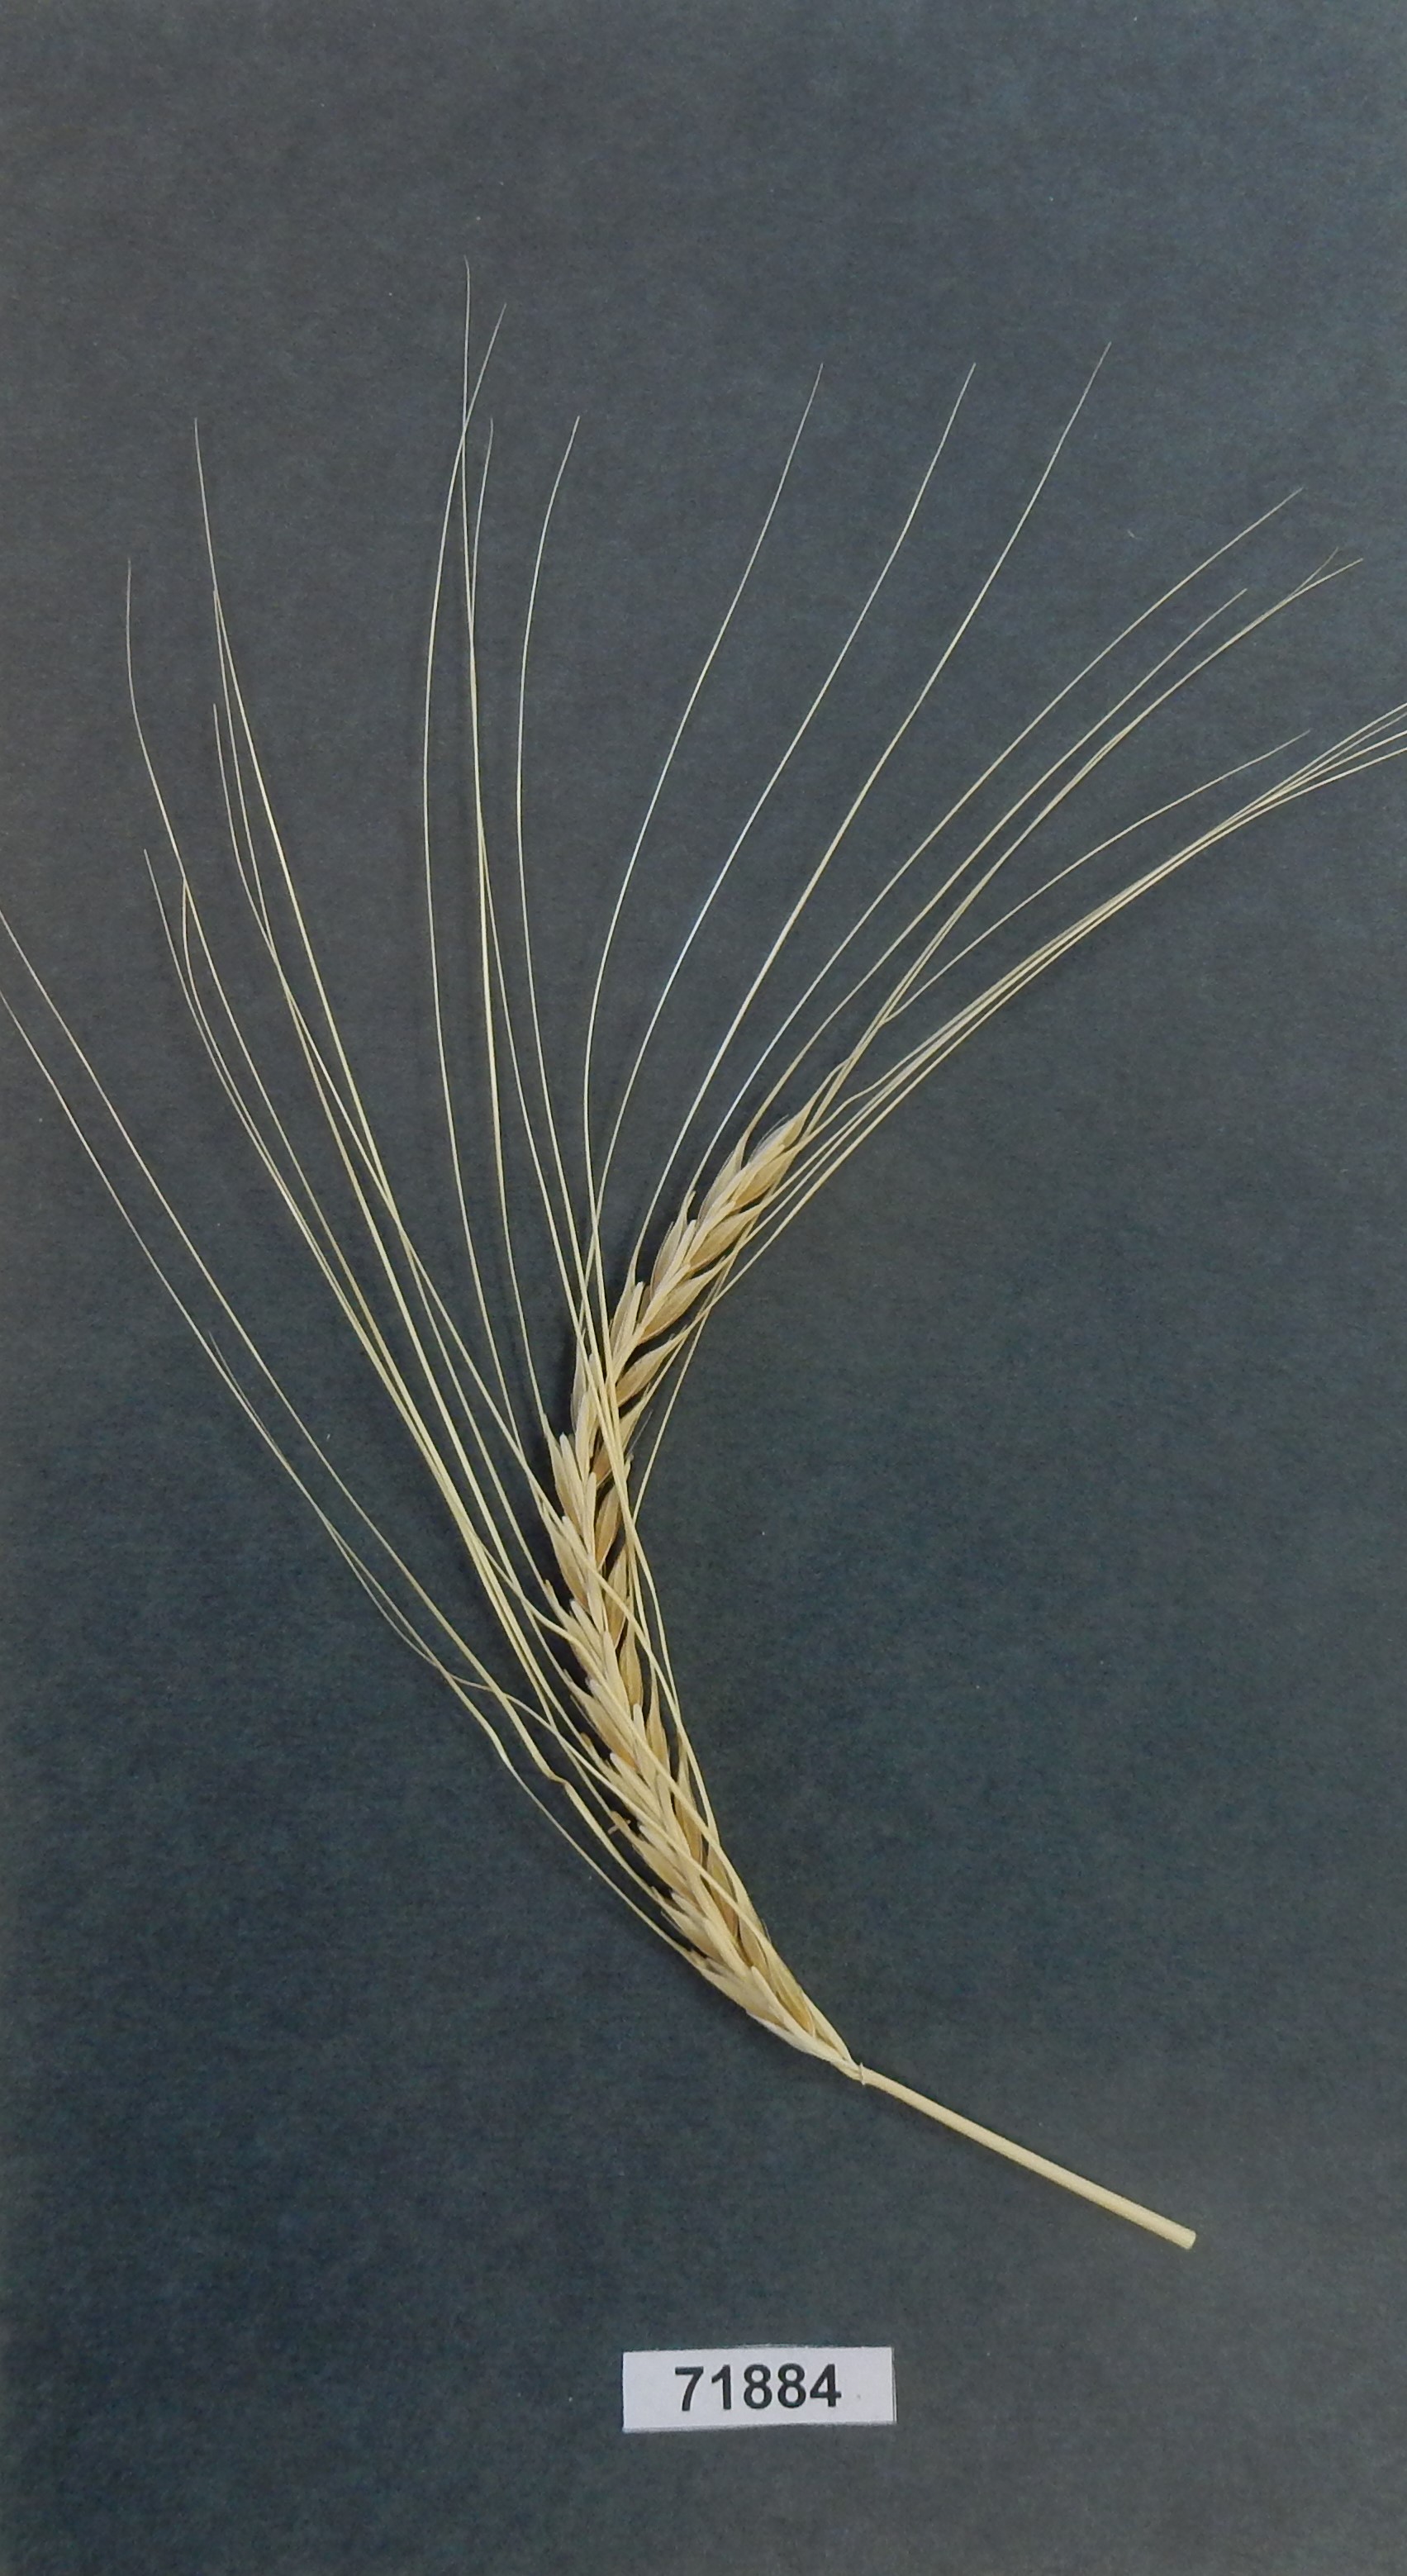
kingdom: Plantae
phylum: Tracheophyta
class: Liliopsida
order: Poales
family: Poaceae
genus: Hordeum
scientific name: Hordeum
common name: Barley
